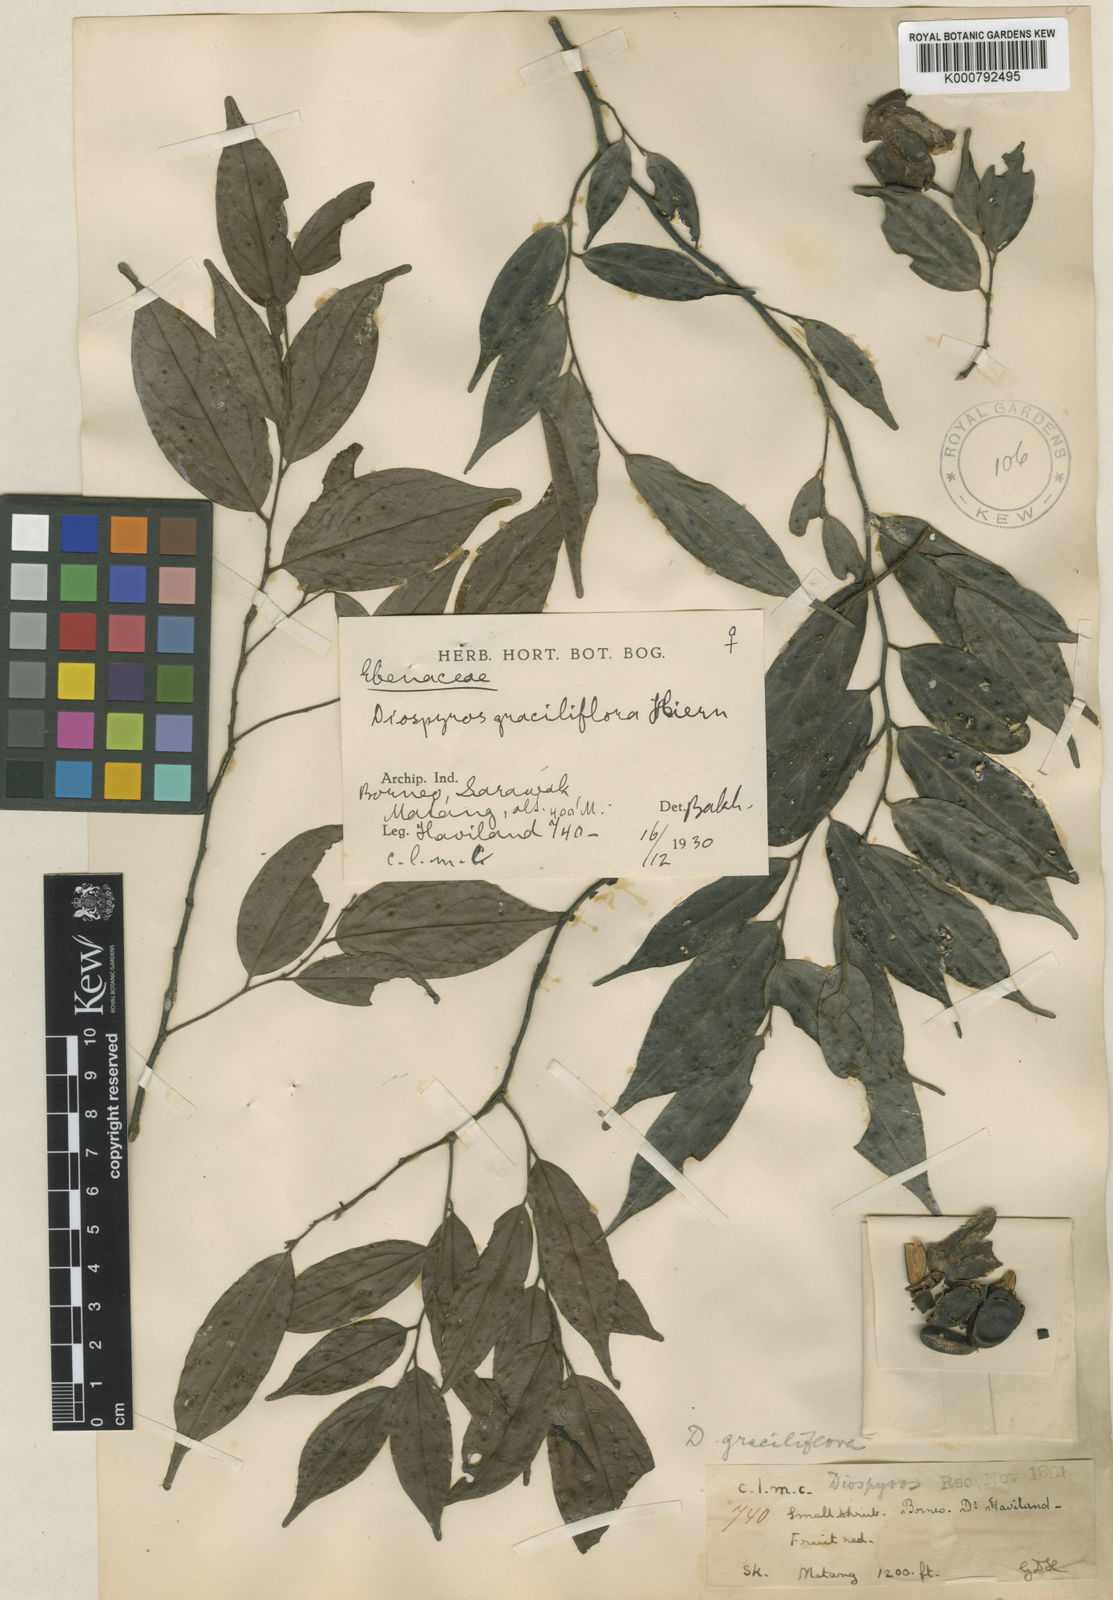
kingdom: Plantae
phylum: Tracheophyta
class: Magnoliopsida
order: Ericales
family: Ebenaceae
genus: Diospyros
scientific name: Diospyros sumatrana
